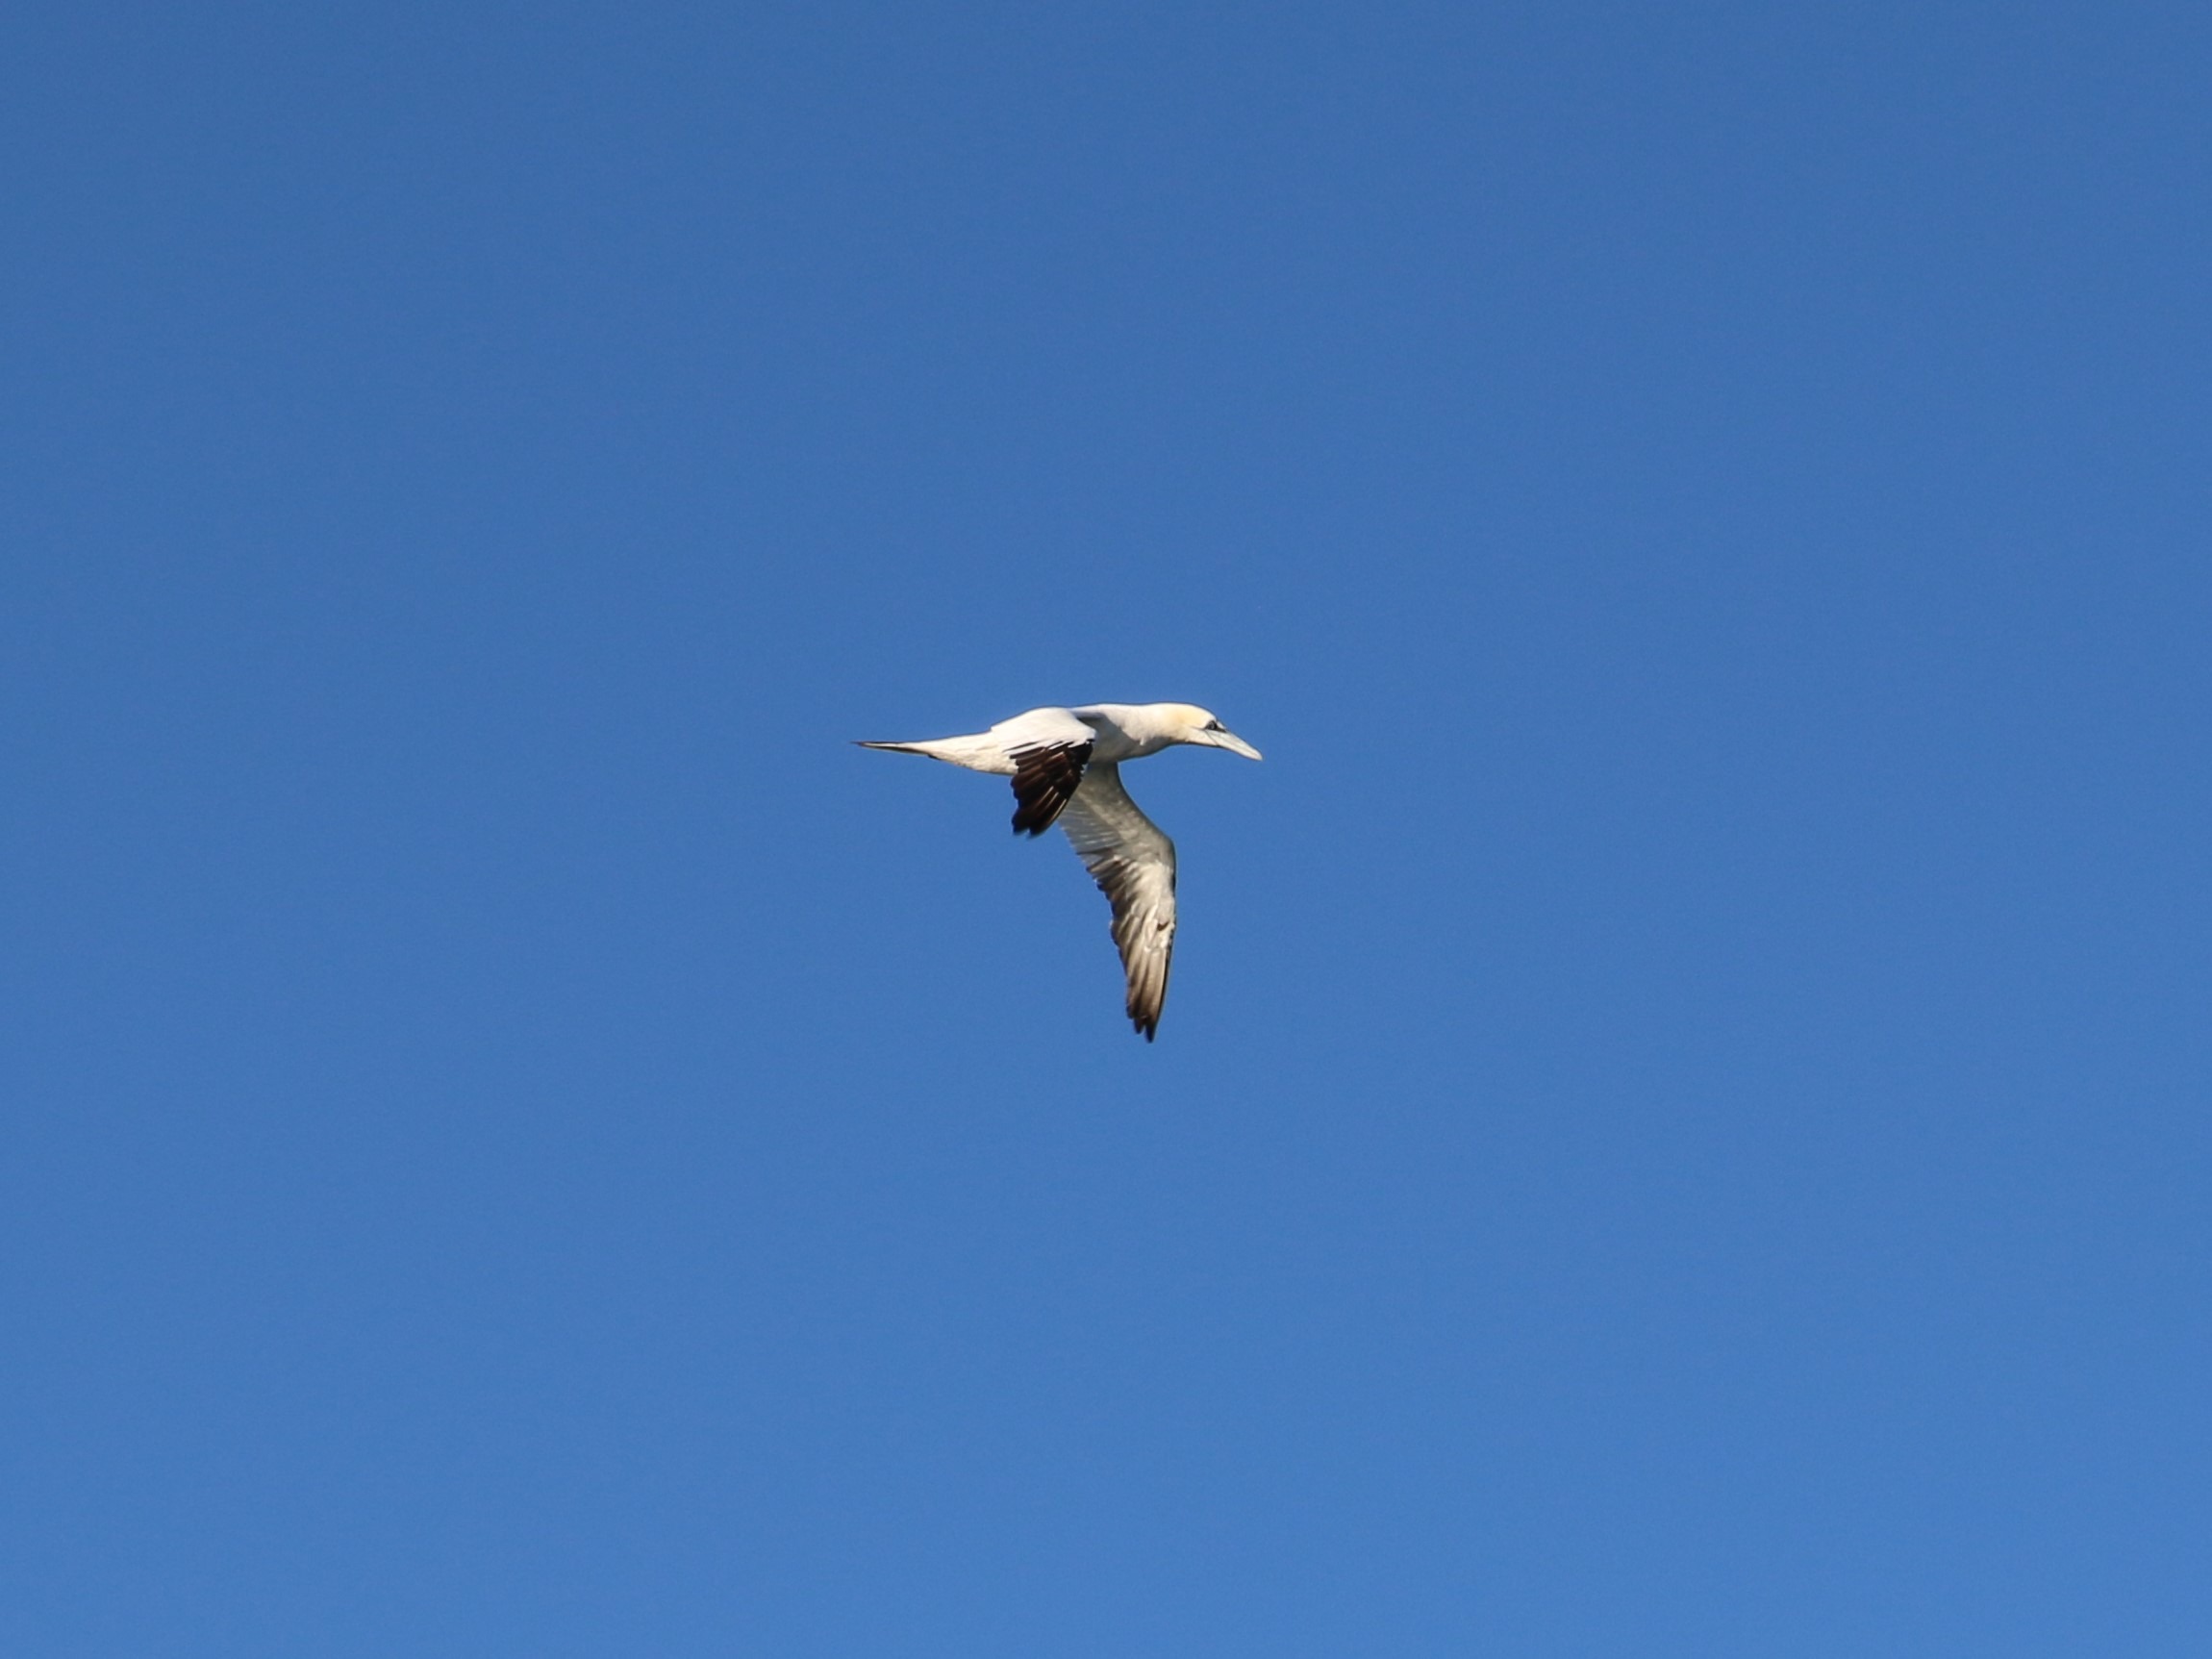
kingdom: Animalia
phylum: Chordata
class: Aves
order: Suliformes
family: Sulidae
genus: Morus
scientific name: Morus bassanus
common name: Sule
